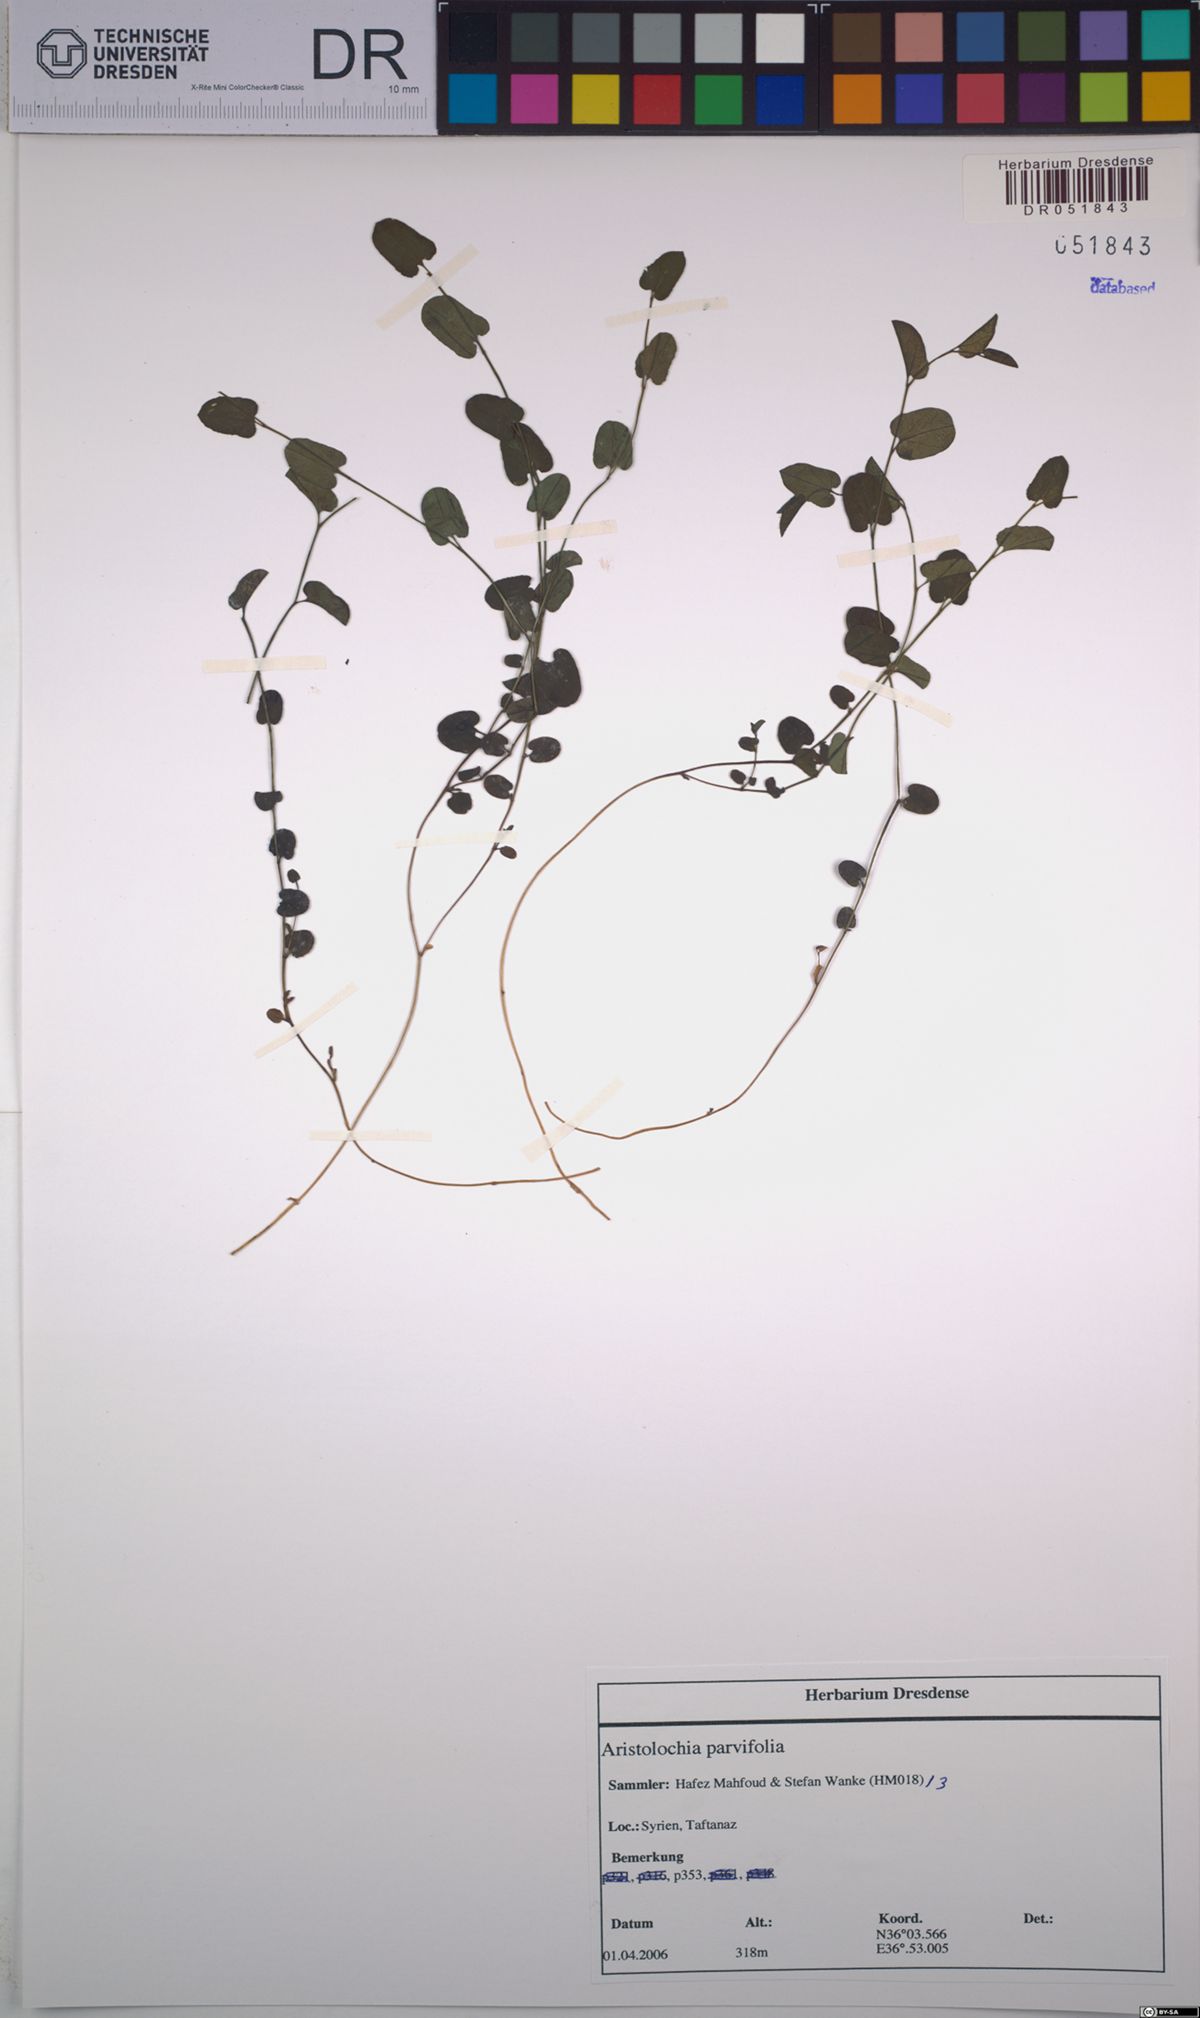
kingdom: Plantae
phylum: Tracheophyta
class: Magnoliopsida
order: Piperales
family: Aristolochiaceae
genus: Aristolochia
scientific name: Aristolochia parvifolia
